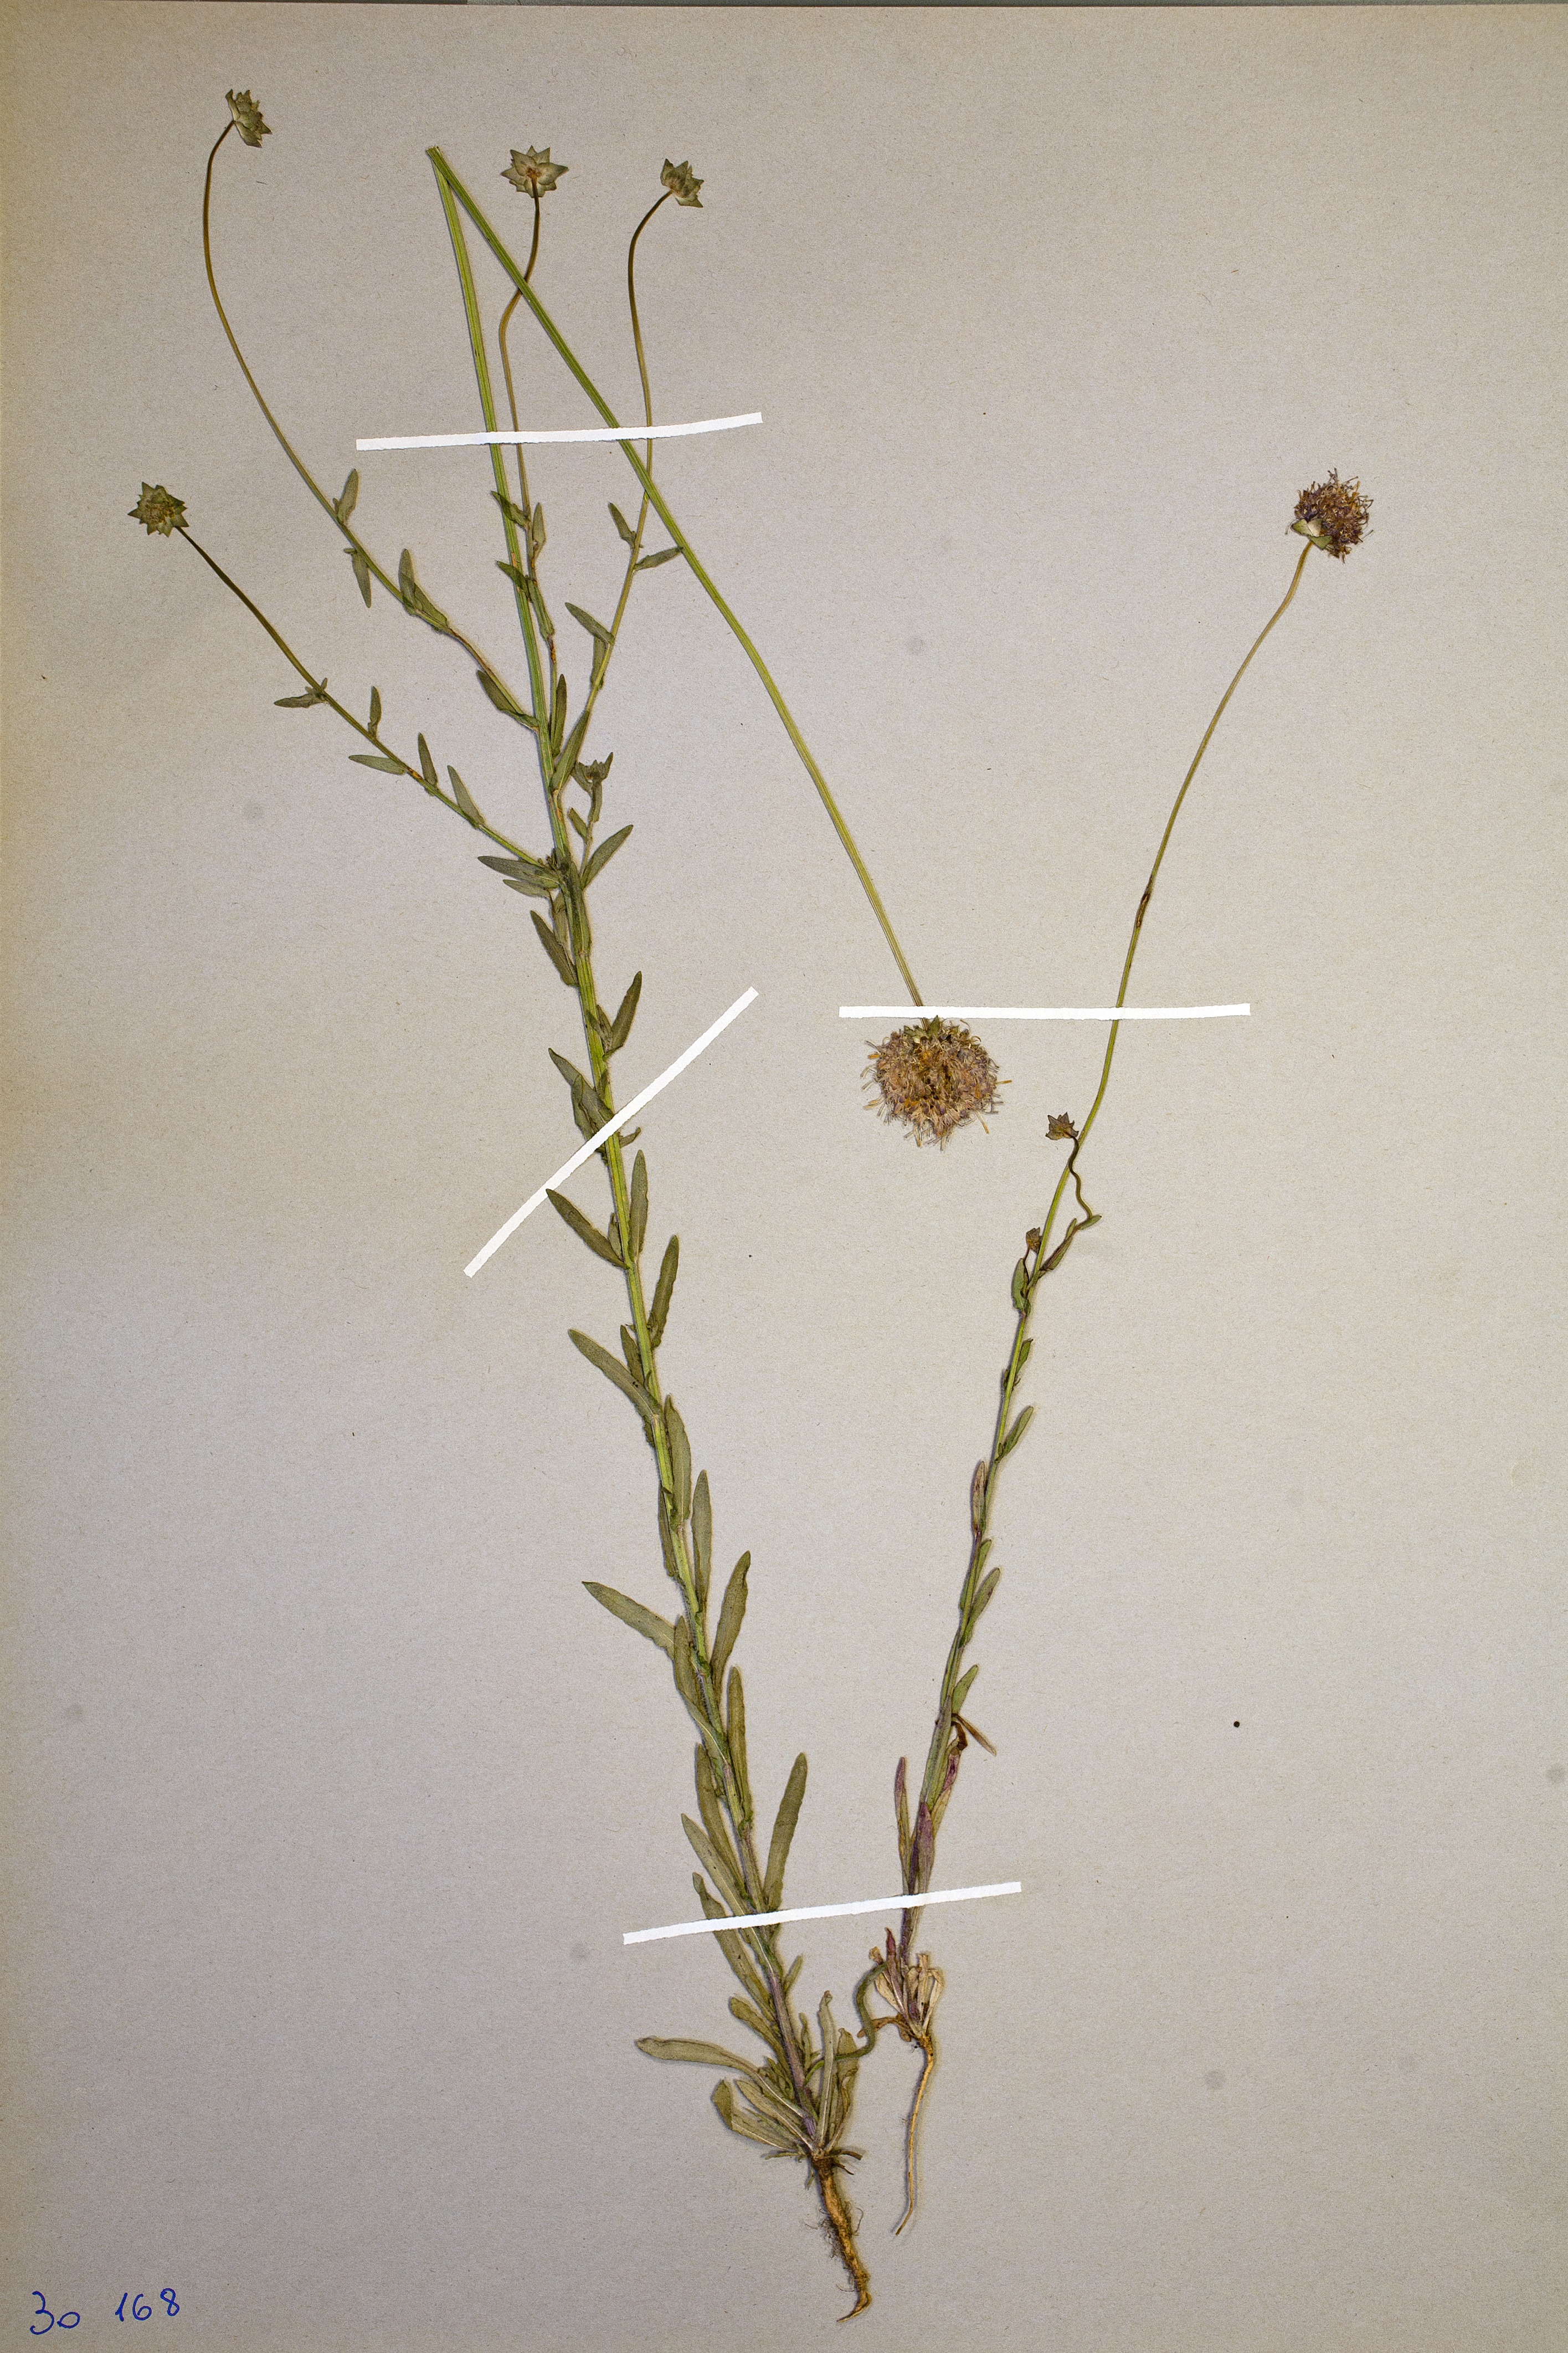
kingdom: Plantae
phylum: Tracheophyta
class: Magnoliopsida
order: Asterales
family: Campanulaceae
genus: Jasione
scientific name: Jasione montana
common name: Sheep's-bit
